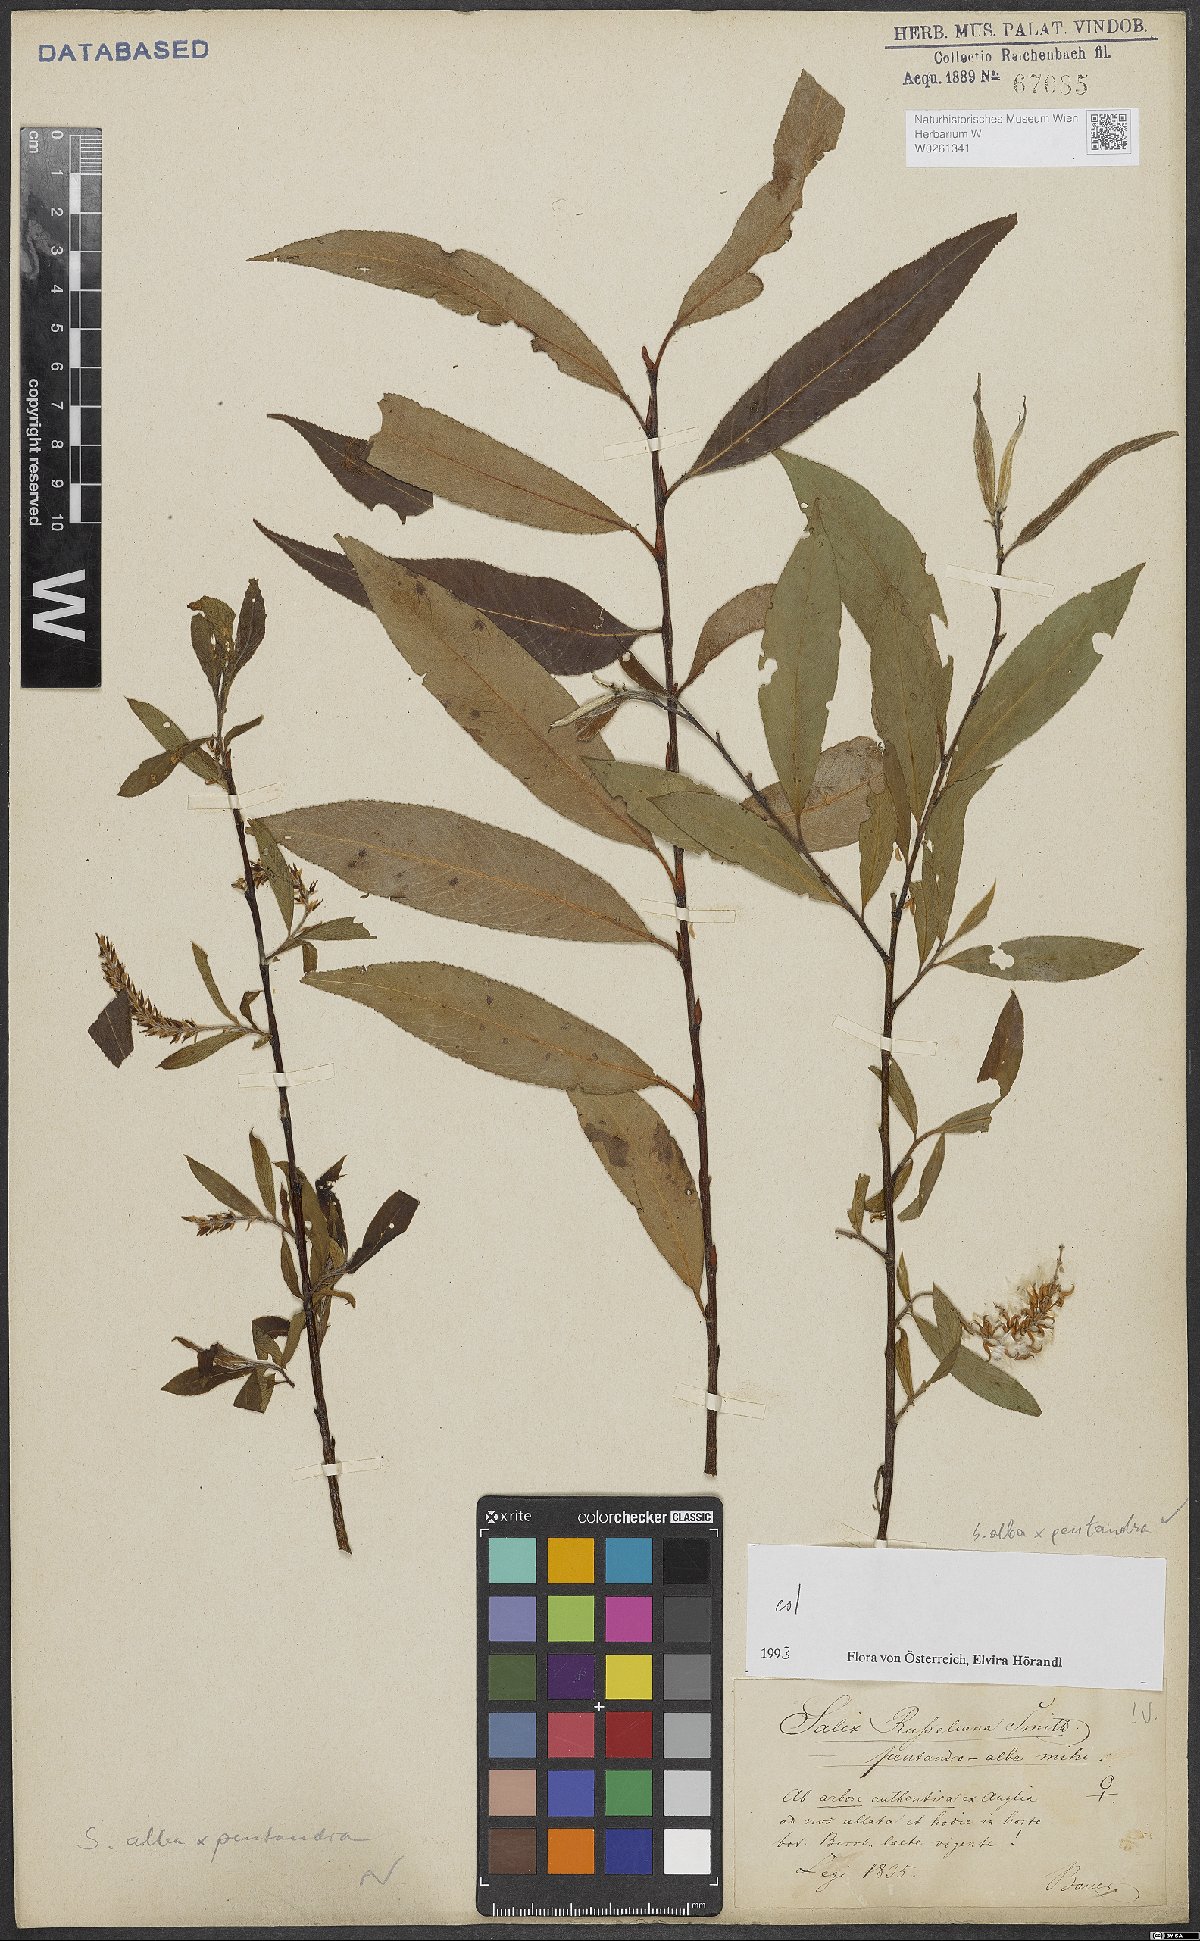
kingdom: Plantae
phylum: Tracheophyta
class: Magnoliopsida
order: Malpighiales
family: Salicaceae
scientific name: Salicaceae
